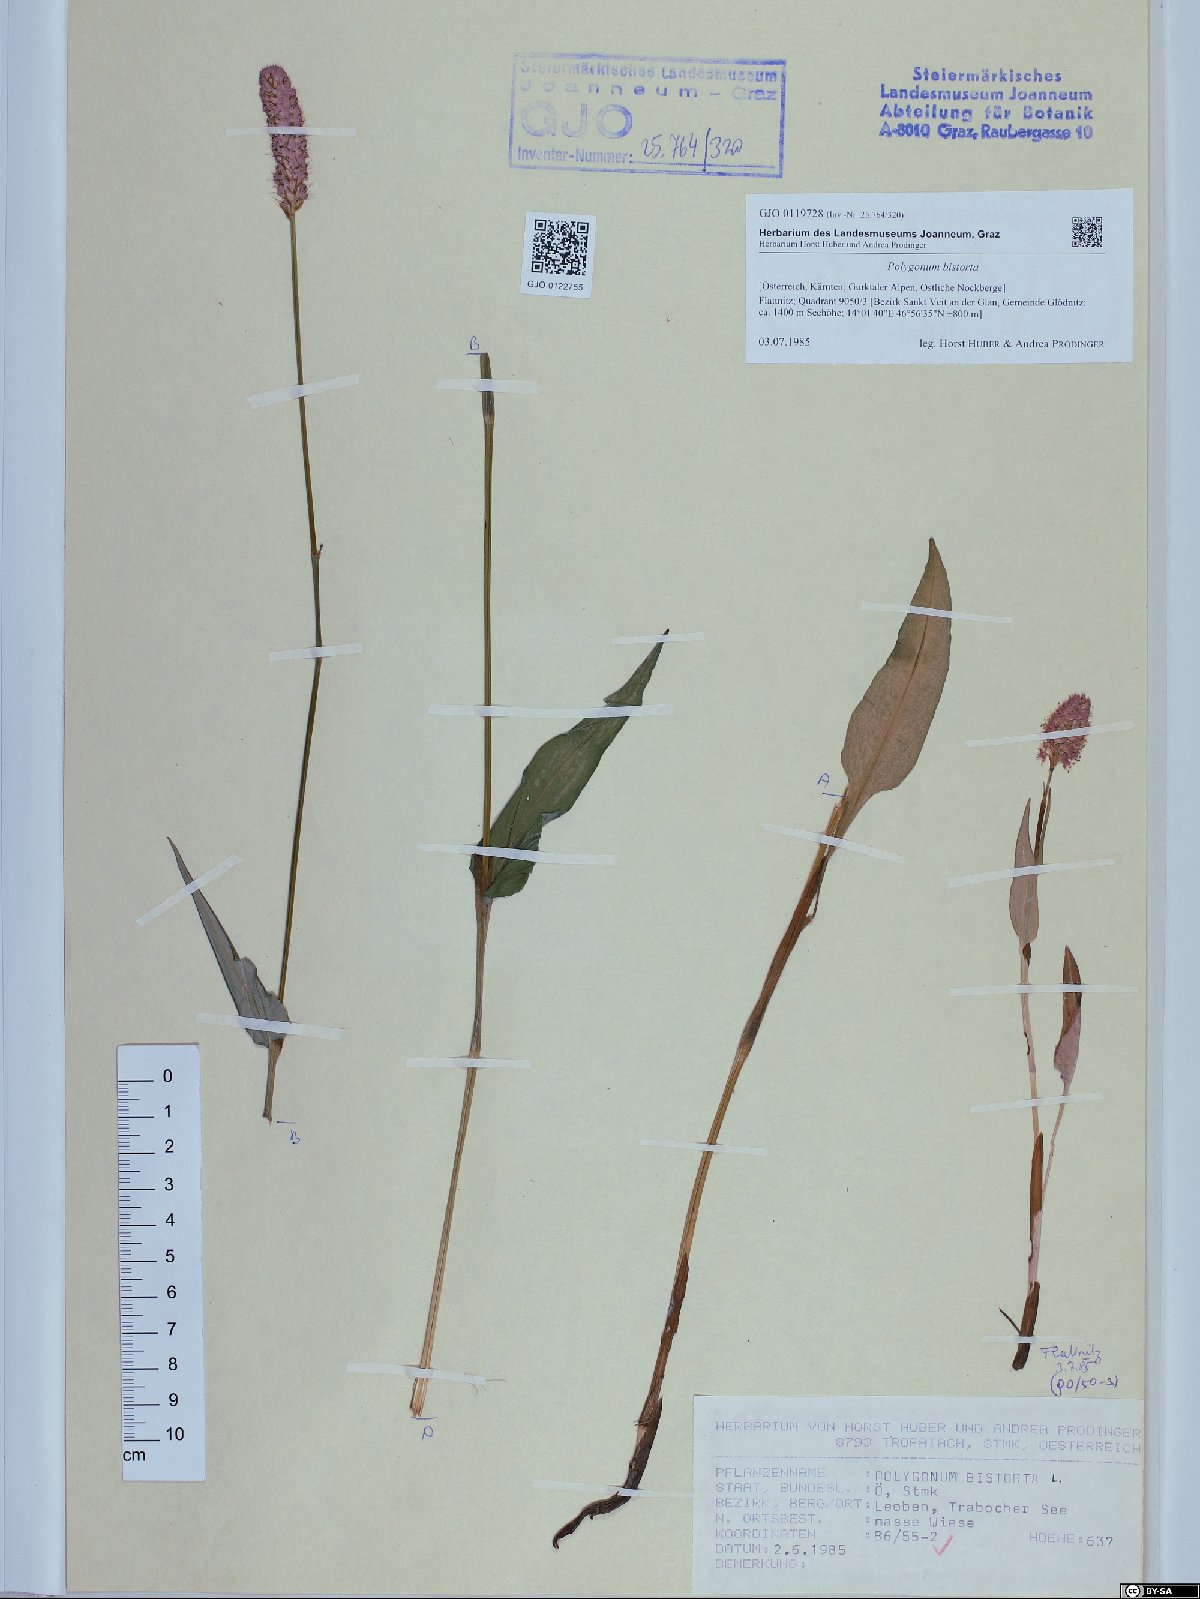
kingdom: Plantae
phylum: Tracheophyta
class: Magnoliopsida
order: Caryophyllales
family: Polygonaceae
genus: Bistorta
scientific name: Bistorta officinalis
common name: Common bistort
